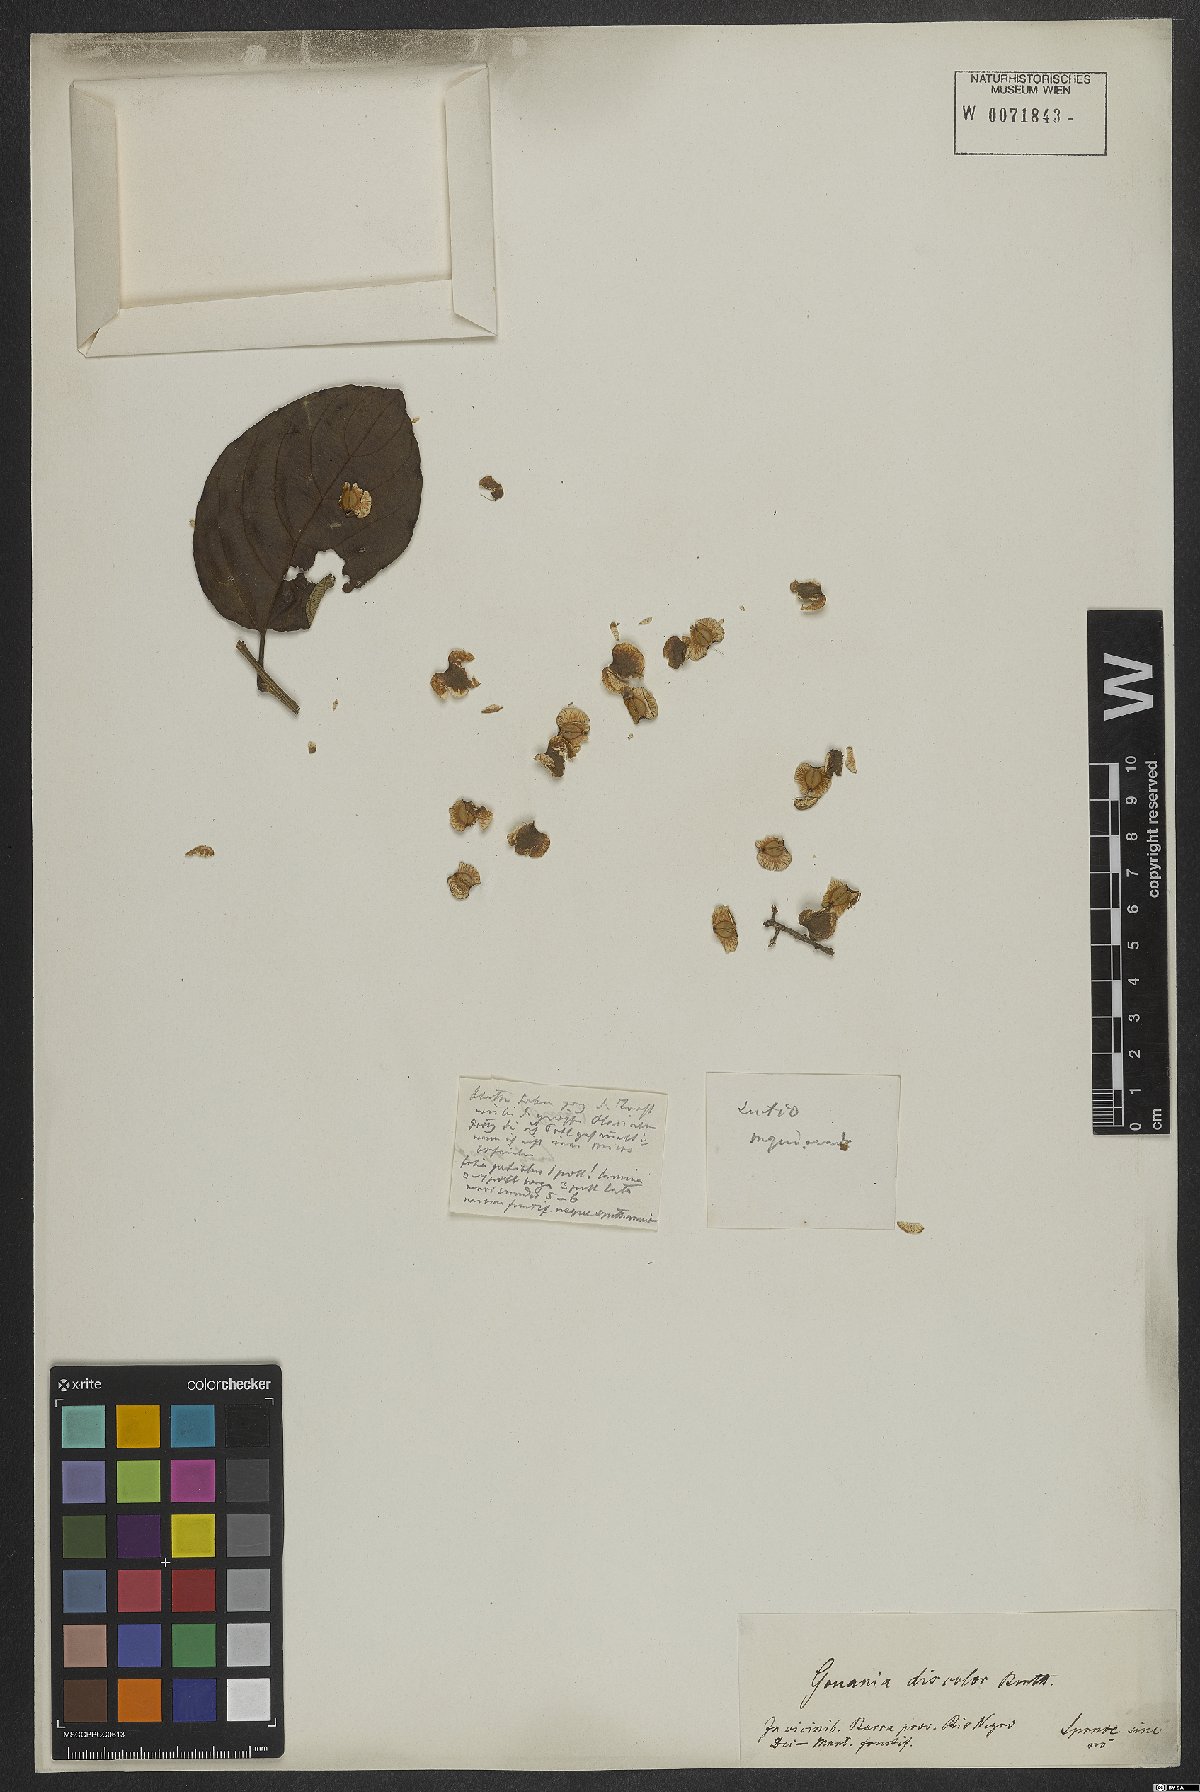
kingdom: Plantae
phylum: Tracheophyta
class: Magnoliopsida
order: Rosales
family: Rhamnaceae
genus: Gouania
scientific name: Gouania discolor
